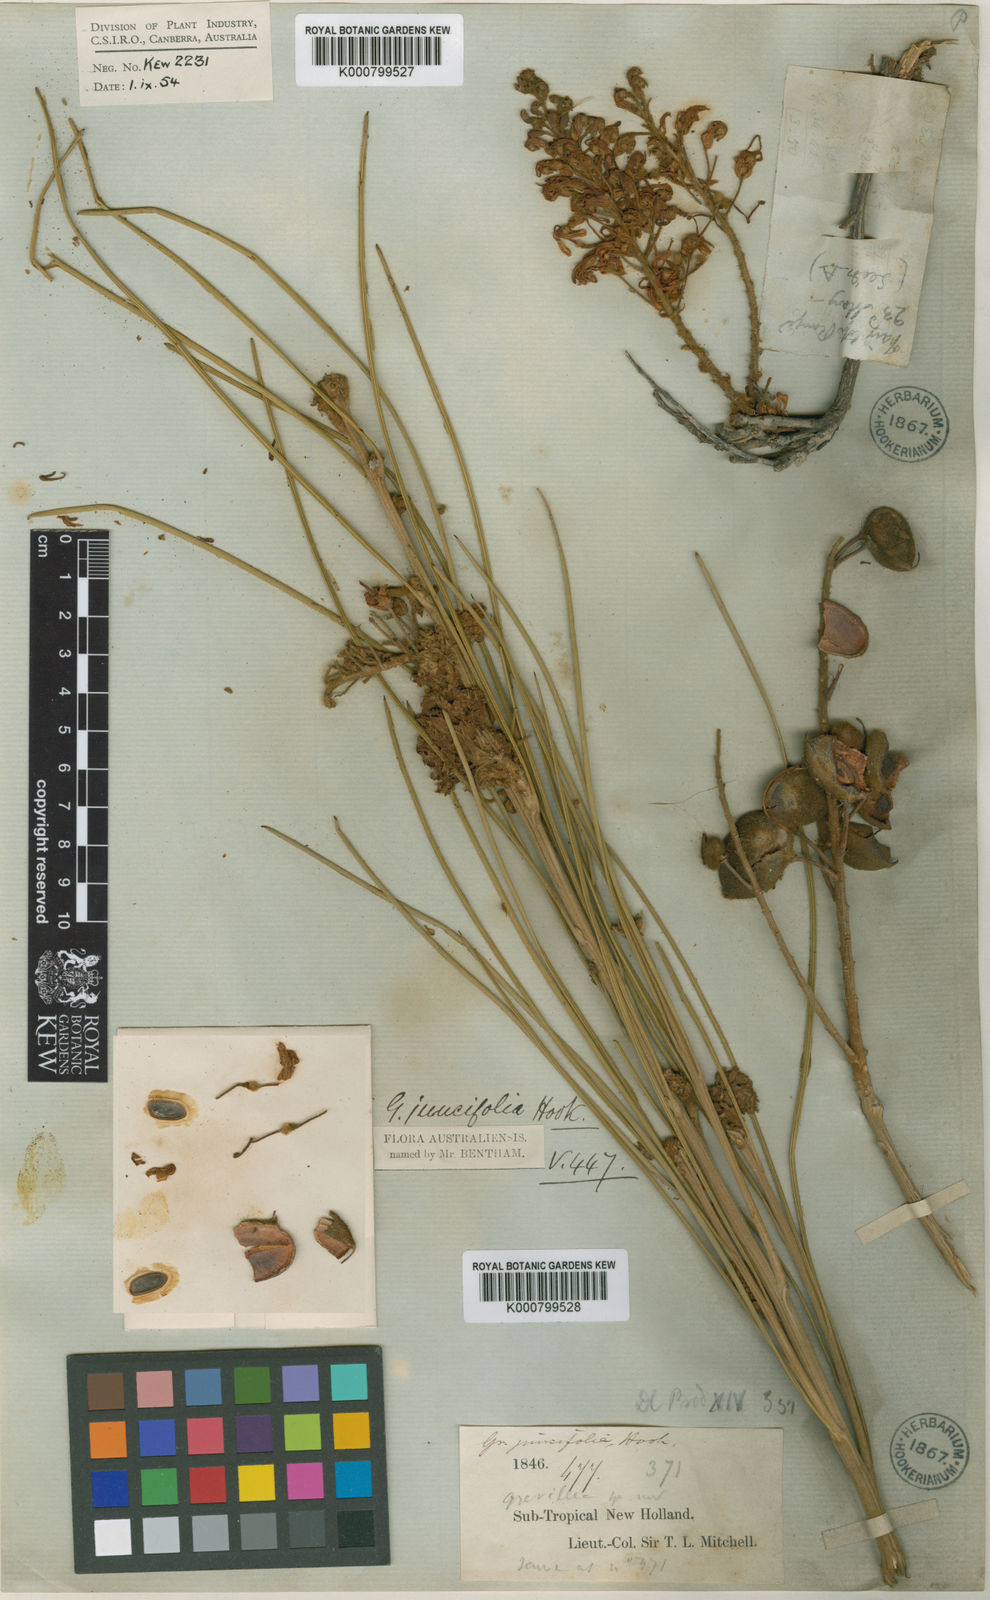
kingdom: Plantae
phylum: Tracheophyta
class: Magnoliopsida
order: Proteales
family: Proteaceae
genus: Grevillea
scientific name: Grevillea juncifolia
